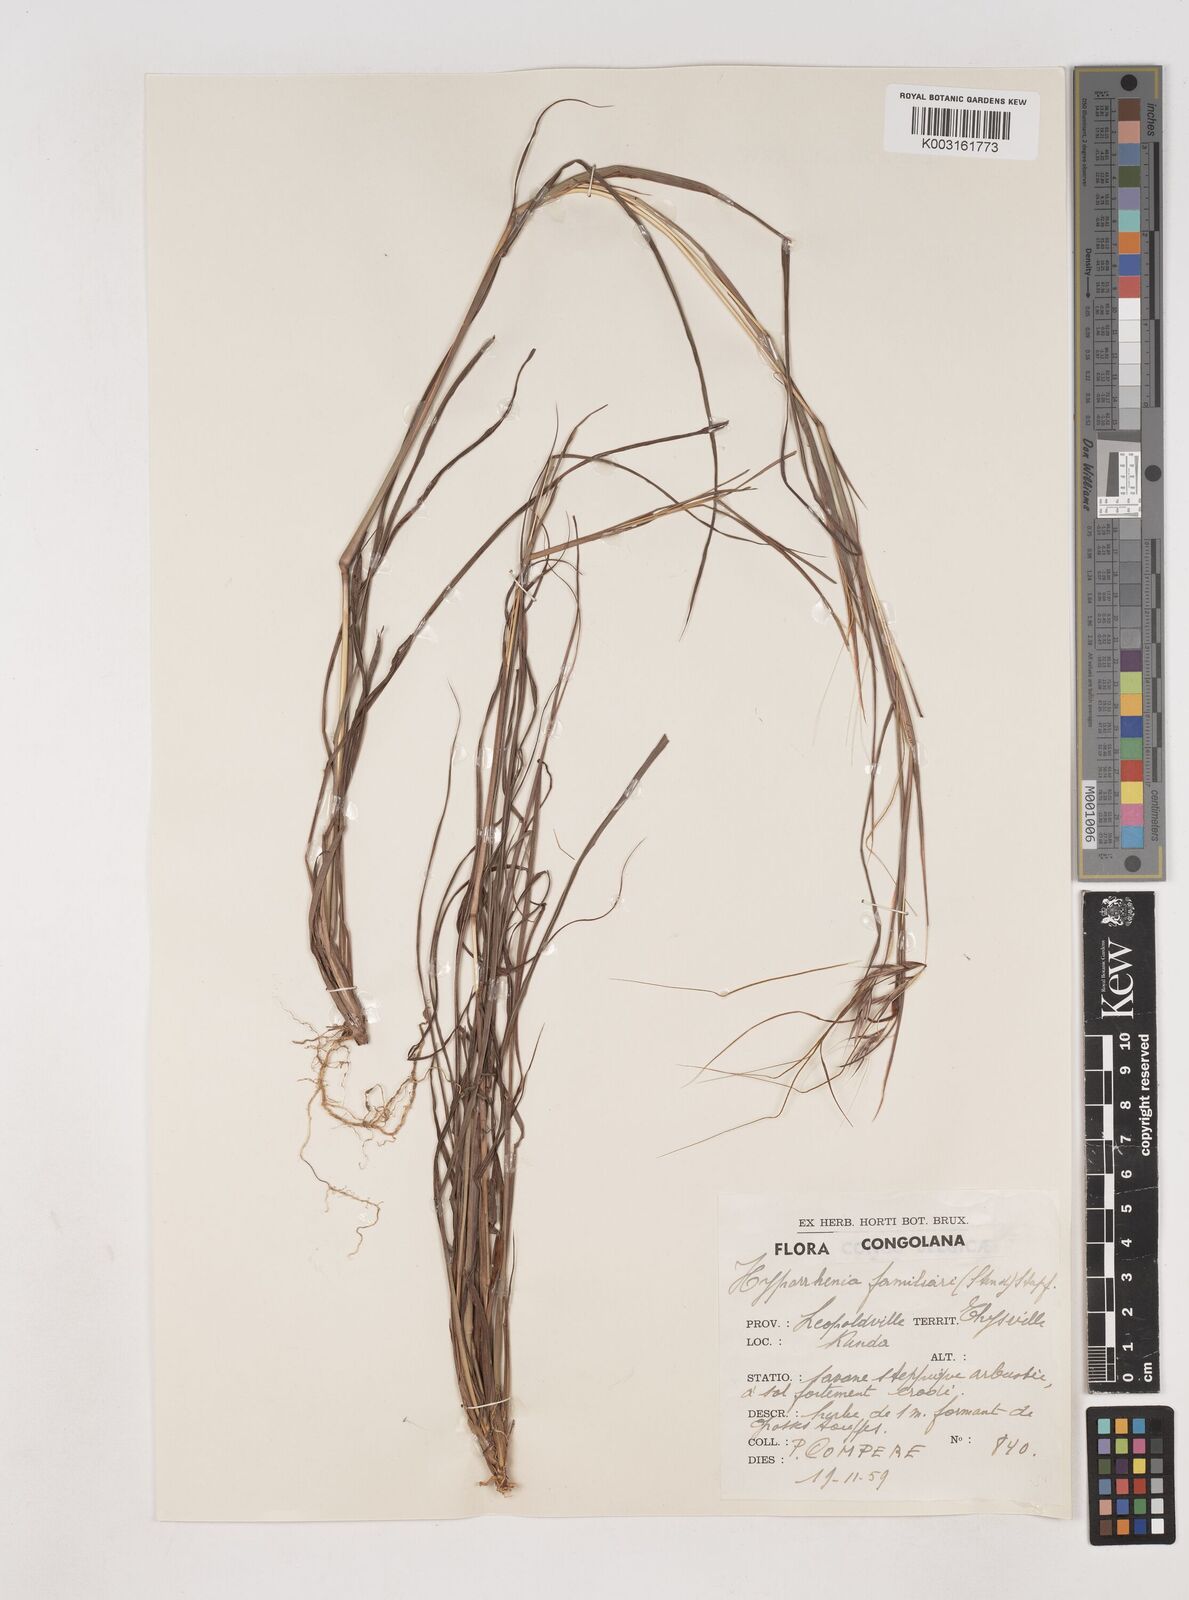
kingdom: Plantae
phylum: Tracheophyta
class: Liliopsida
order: Poales
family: Poaceae
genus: Hyparrhenia
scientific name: Hyparrhenia familiaris
